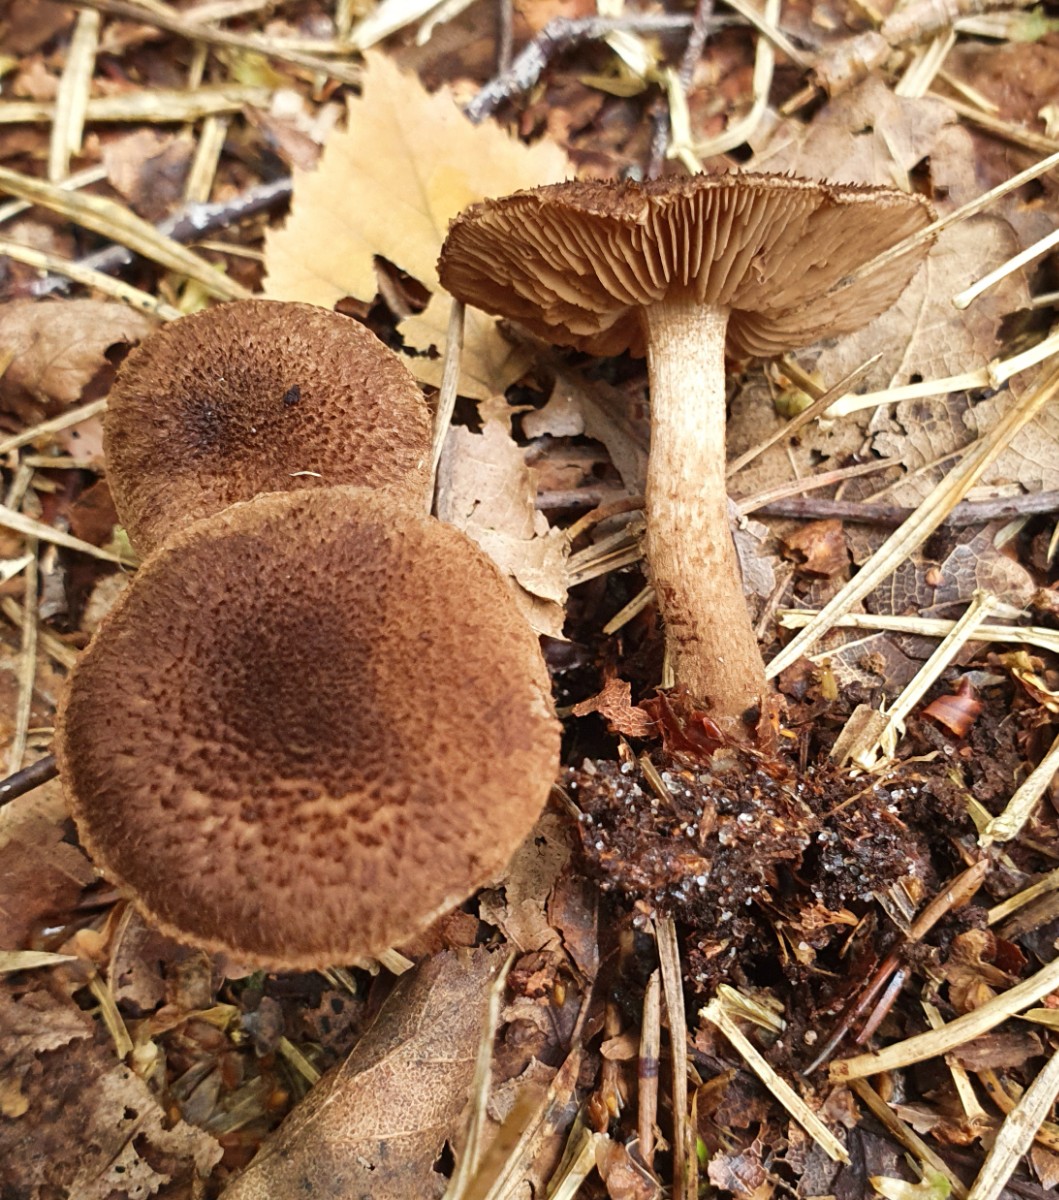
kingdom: Fungi
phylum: Basidiomycota
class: Agaricomycetes
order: Agaricales
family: Inocybaceae
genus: Inocybe
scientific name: Inocybe lanuginosa
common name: uldskællet trævlhat
